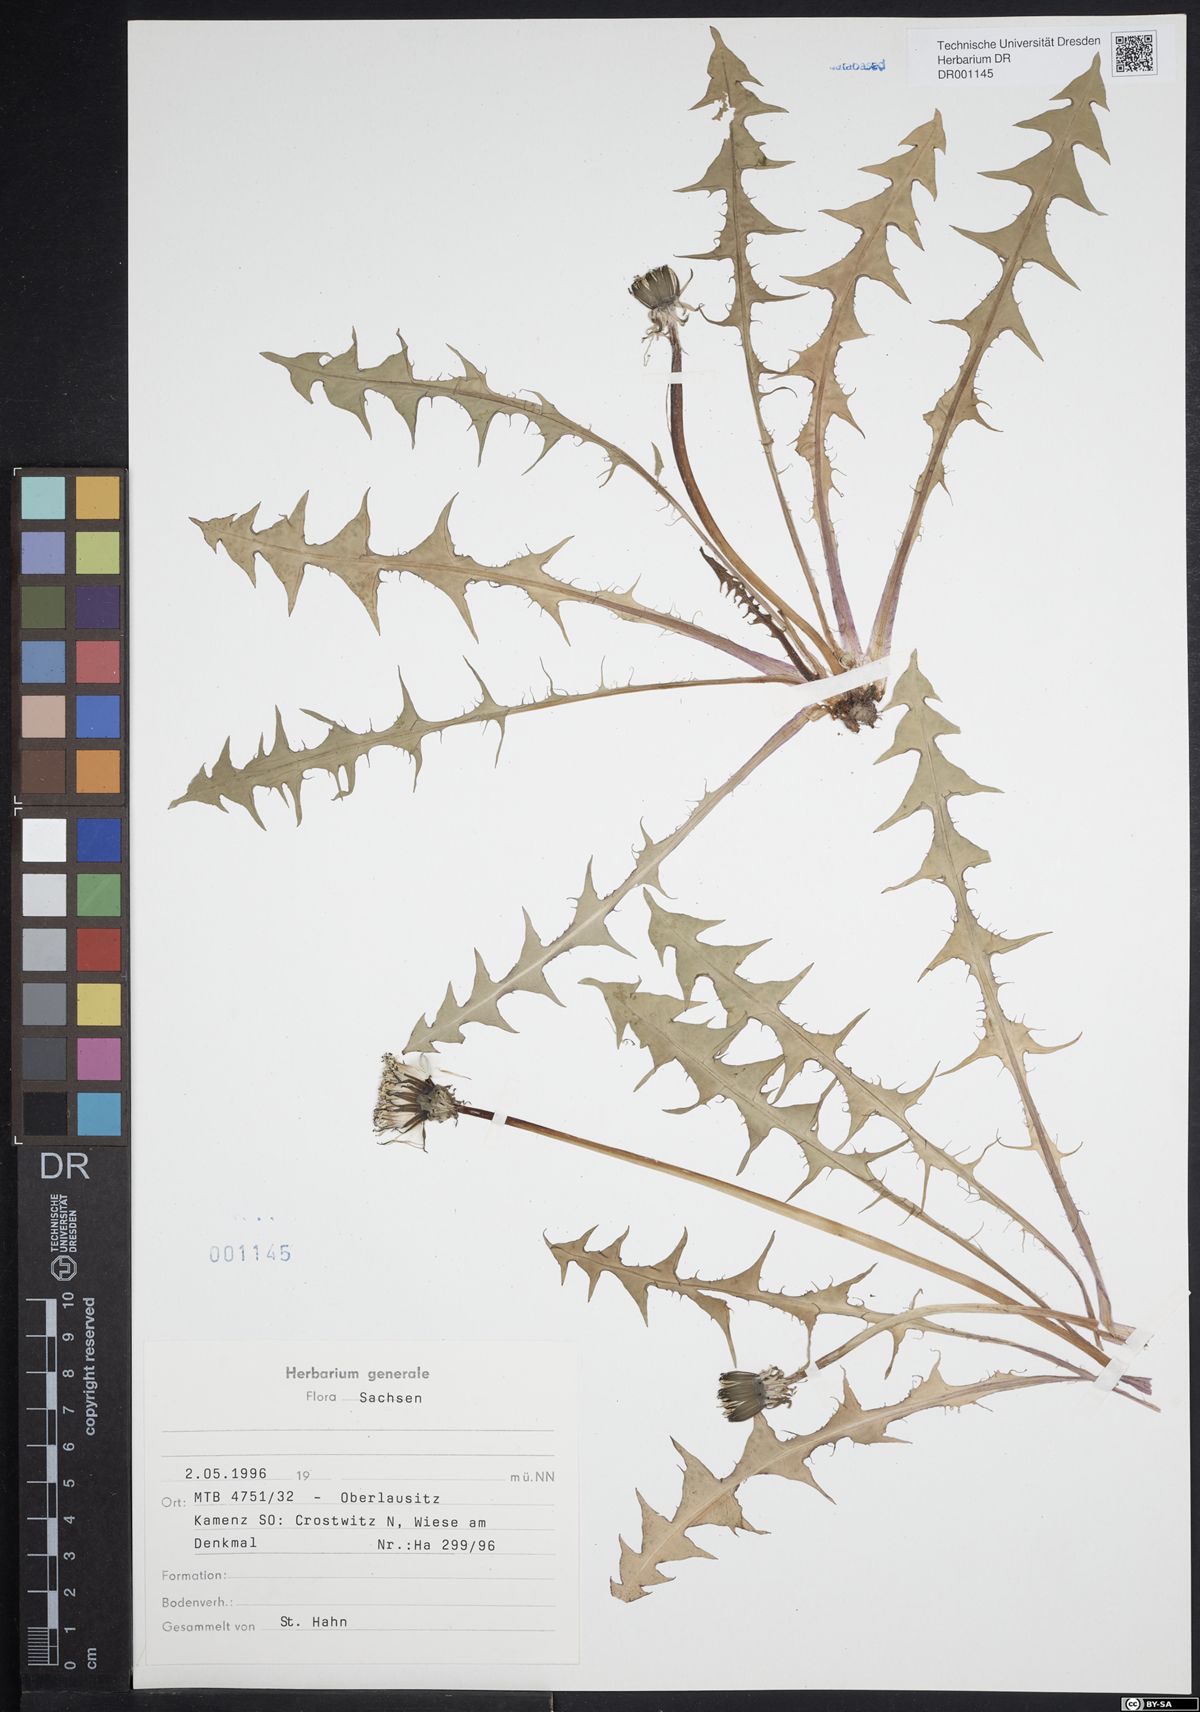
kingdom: Plantae
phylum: Tracheophyta
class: Magnoliopsida
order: Asterales
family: Asteraceae
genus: Taraxacum
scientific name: Taraxacum collarispinulosum
